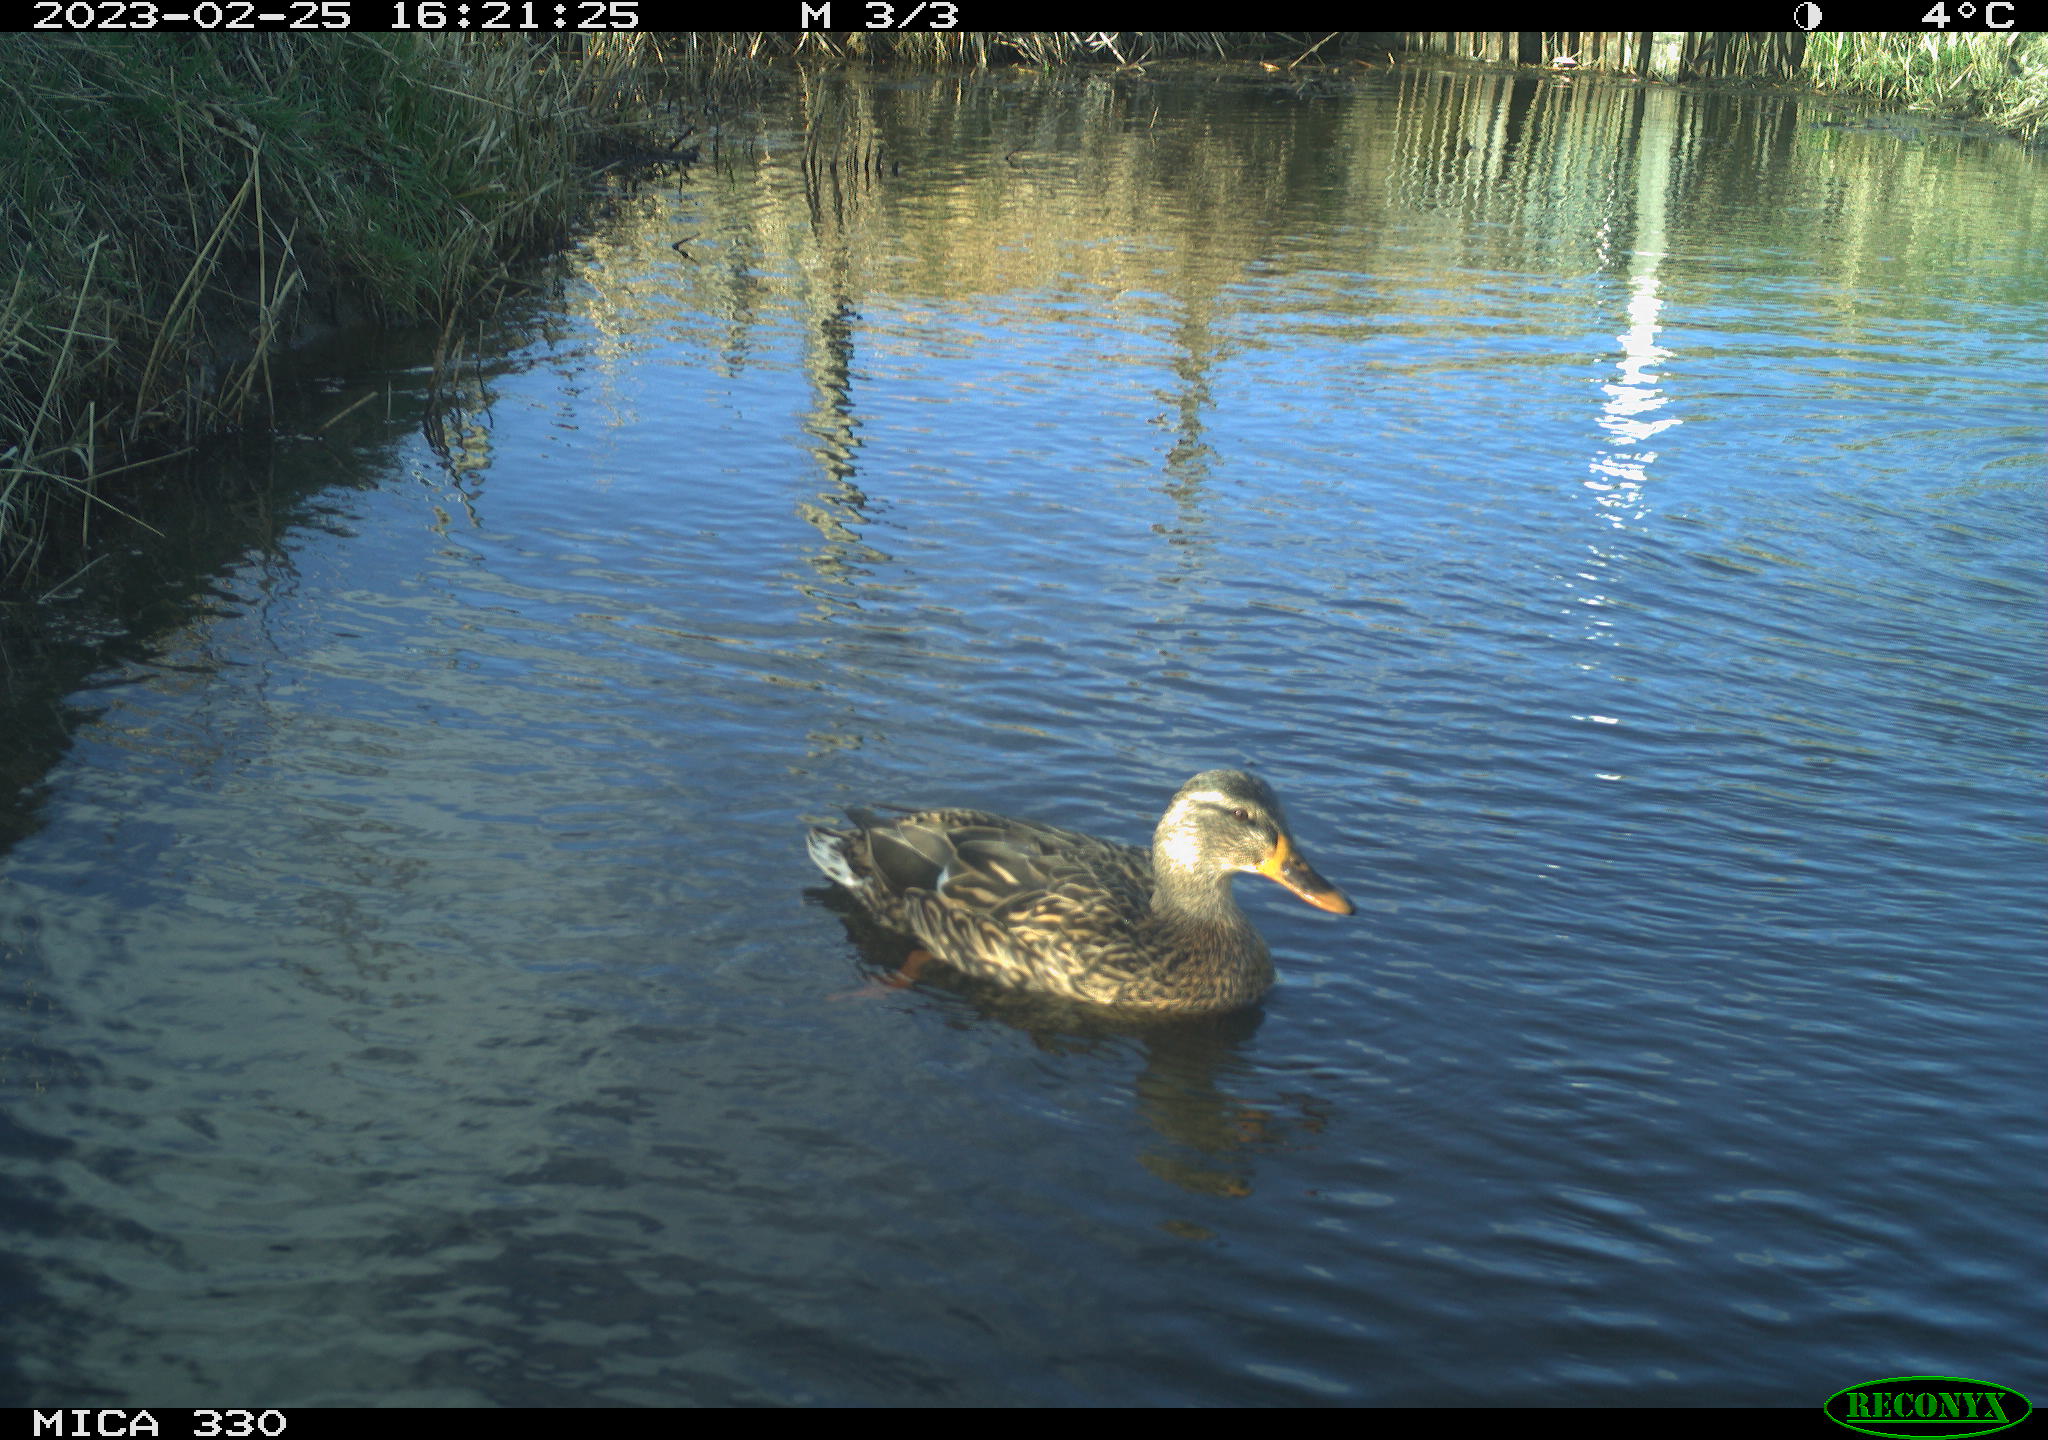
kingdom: Animalia
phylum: Chordata
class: Aves
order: Anseriformes
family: Anatidae
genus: Anas
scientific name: Anas
